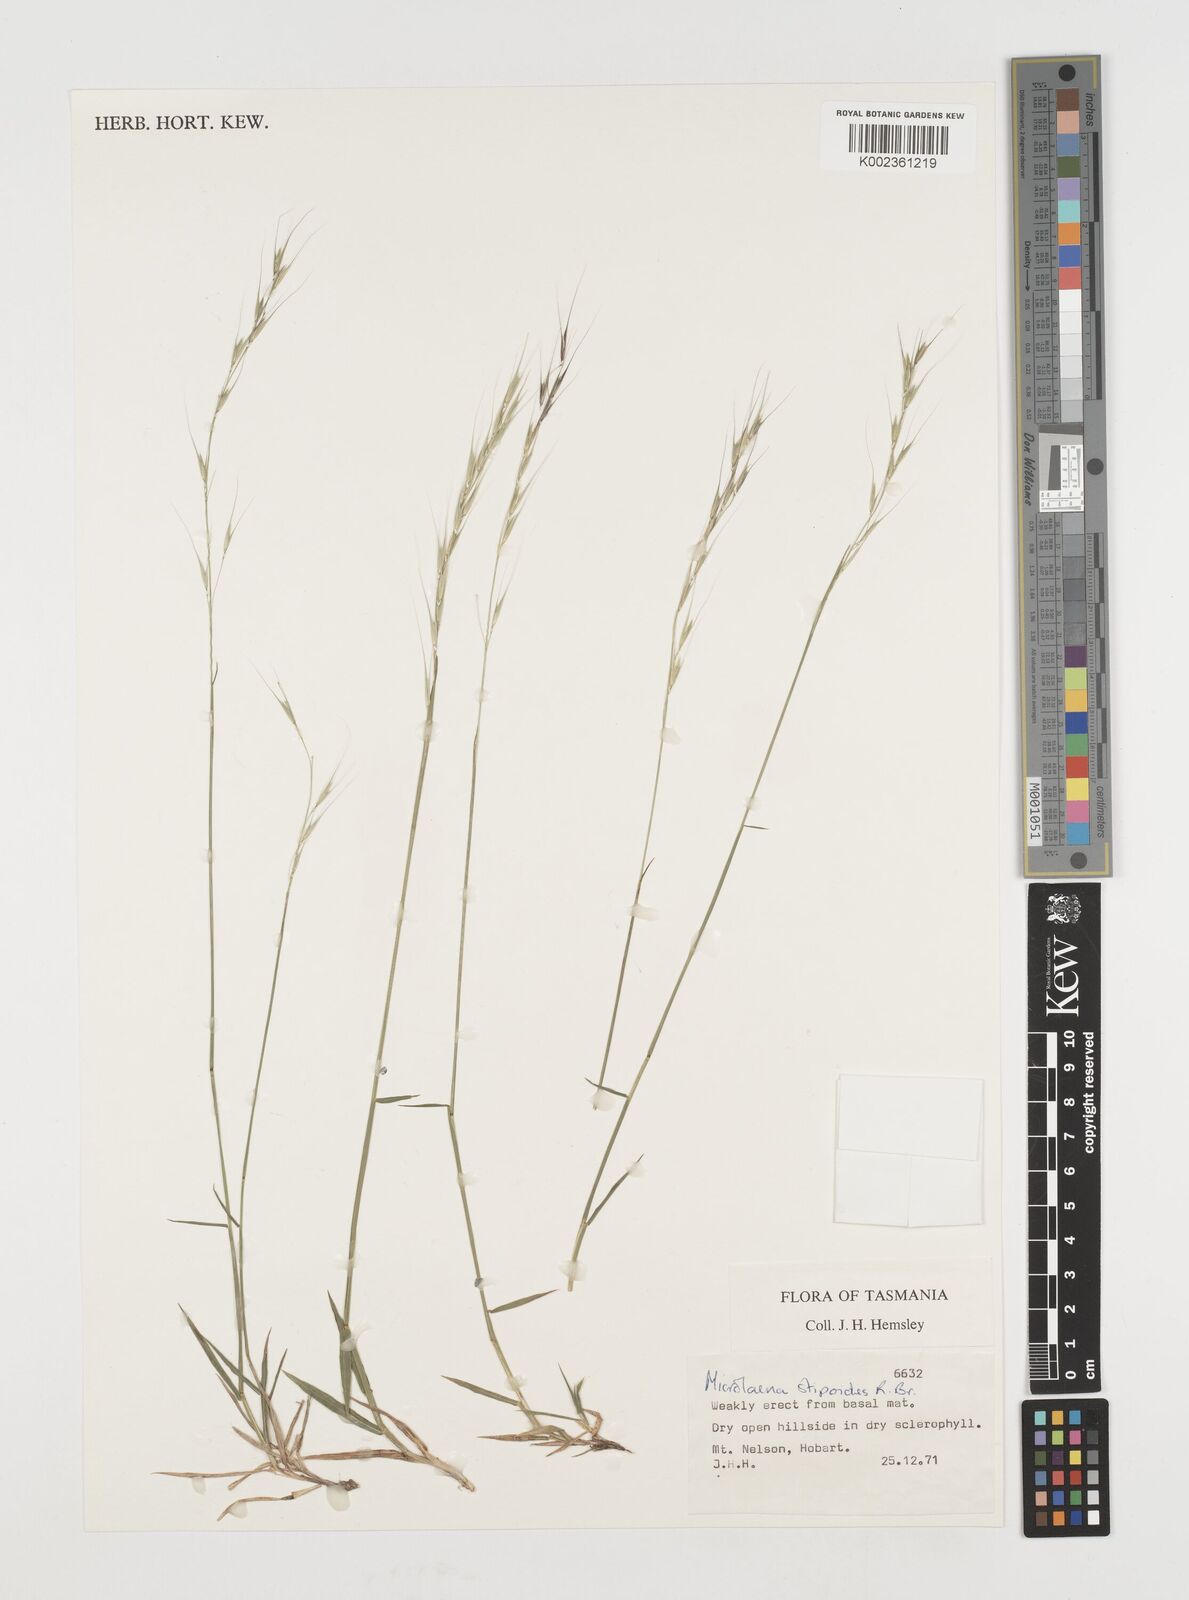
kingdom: Plantae
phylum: Tracheophyta
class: Liliopsida
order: Poales
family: Poaceae
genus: Microlaena
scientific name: Microlaena stipoides
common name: Meadow ricegrass
